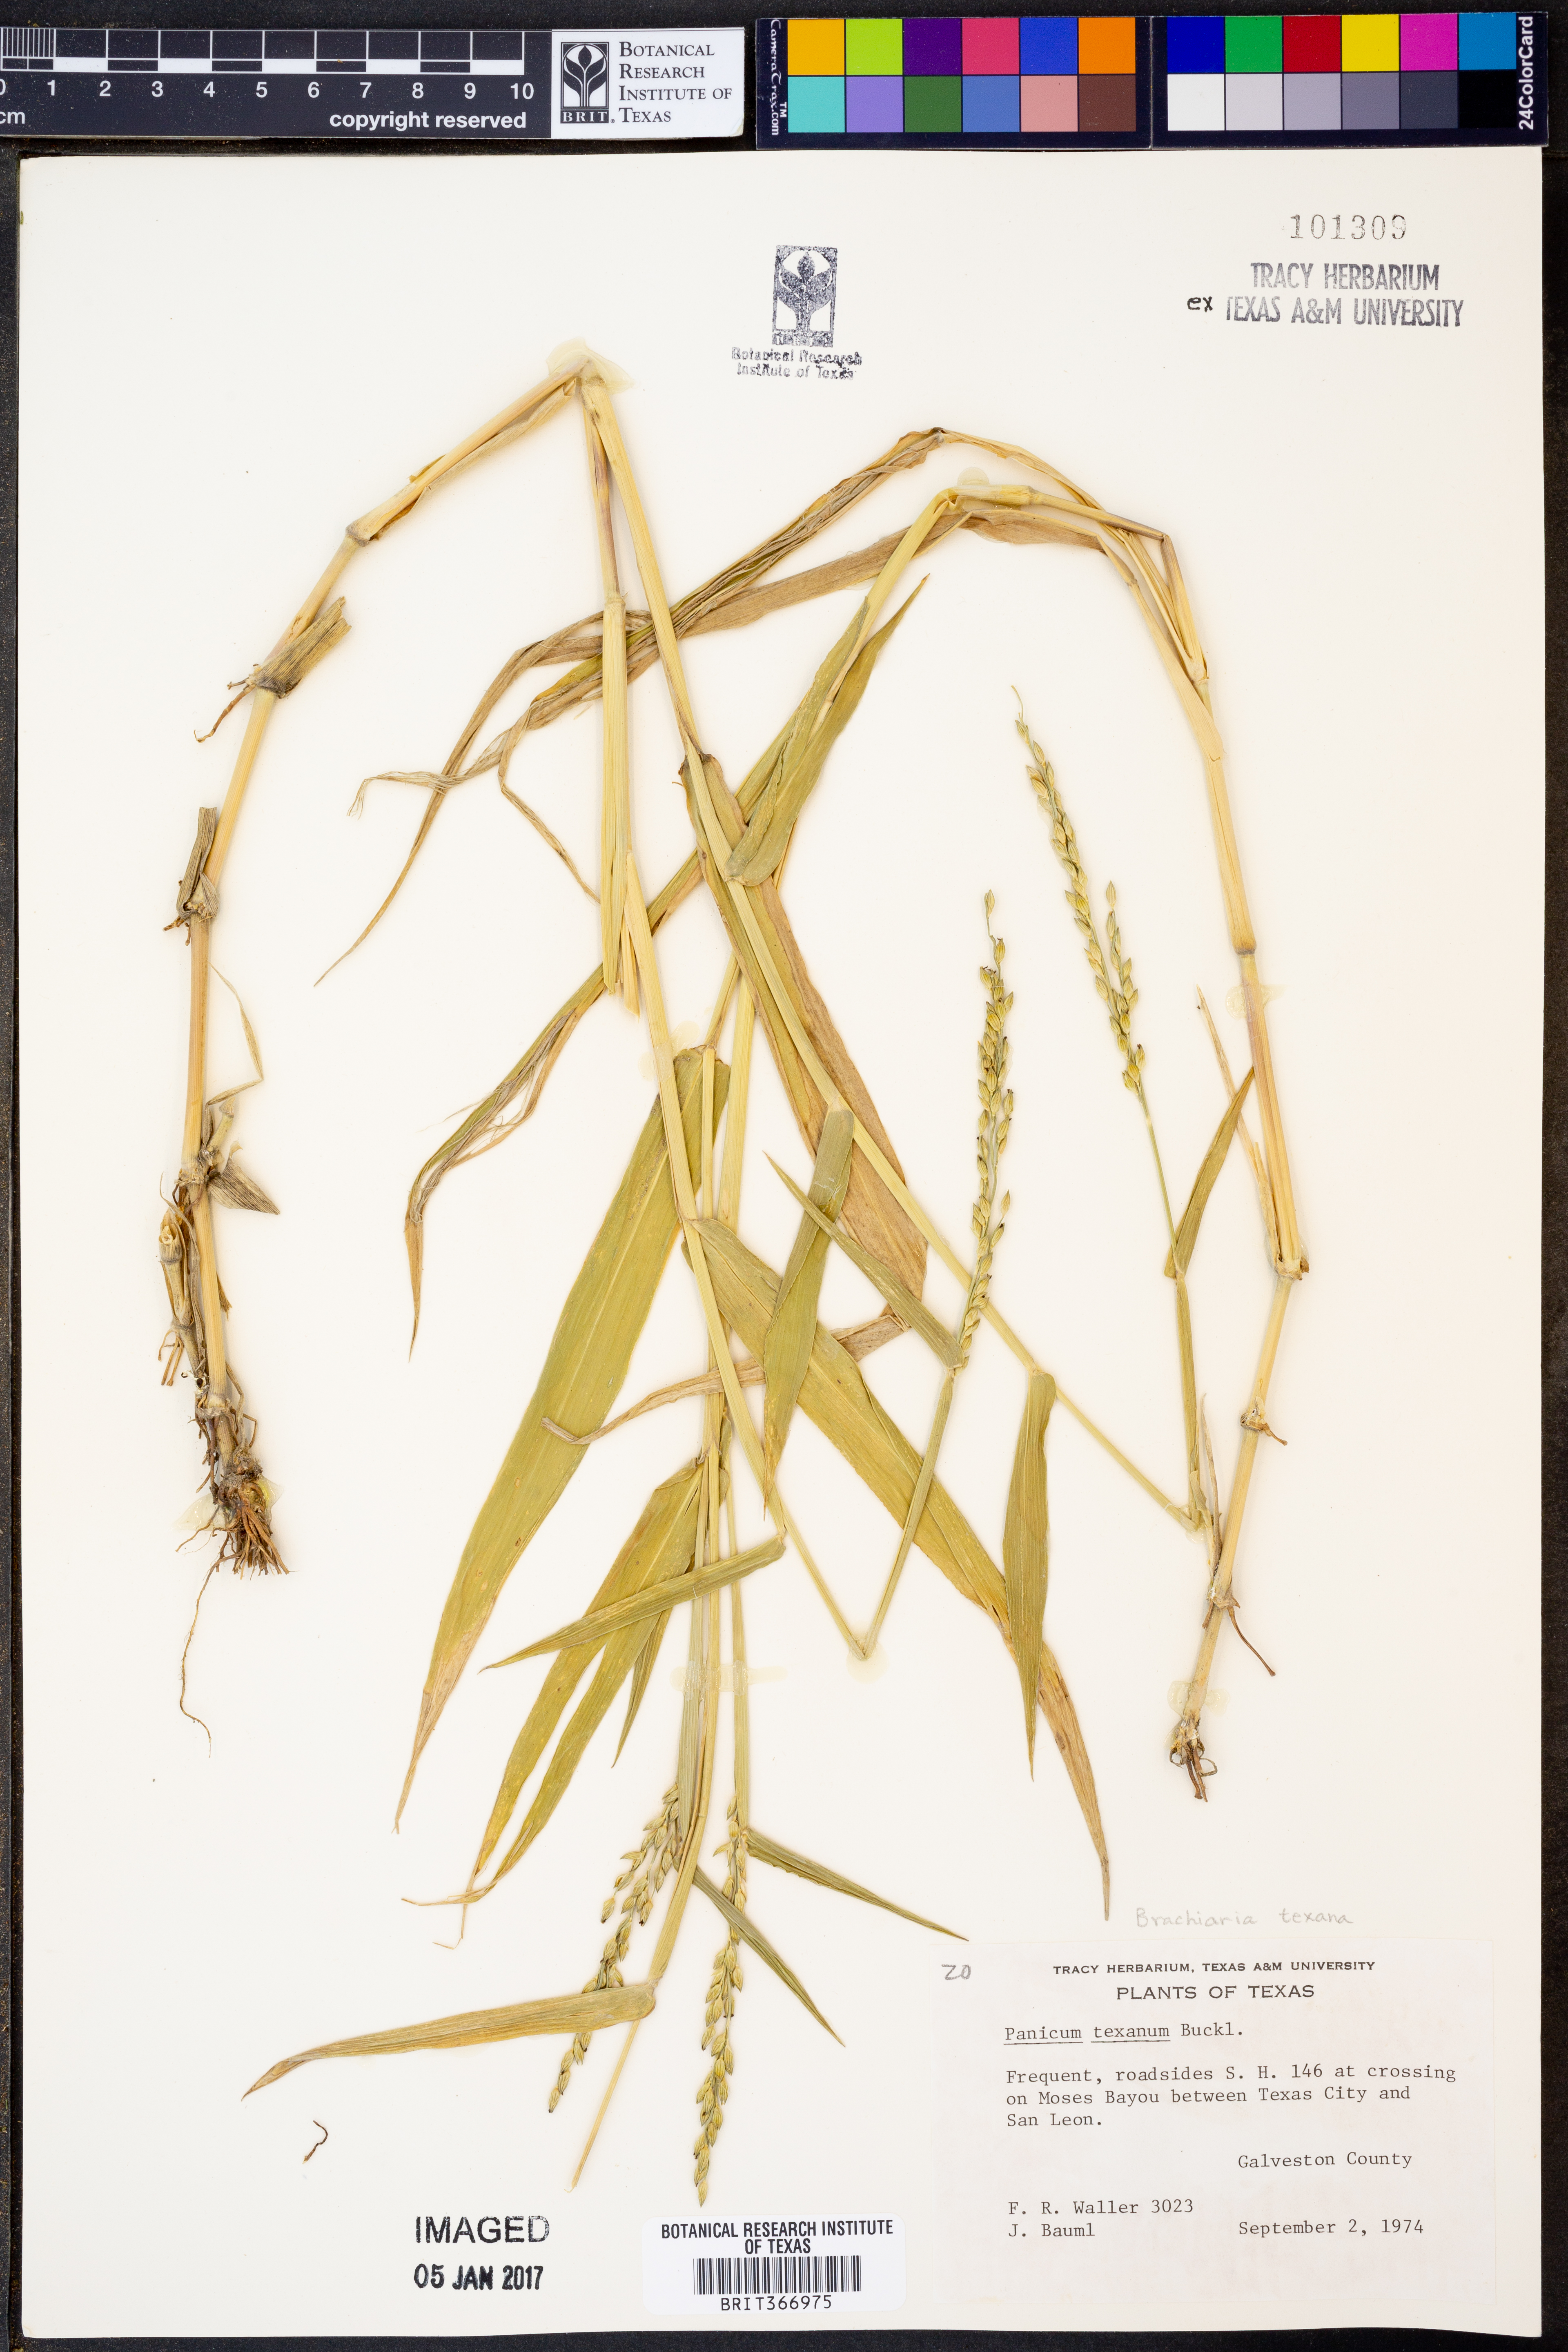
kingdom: Plantae
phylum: Tracheophyta
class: Liliopsida
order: Poales
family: Poaceae
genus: Urochloa
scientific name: Urochloa texana
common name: Texas millet
